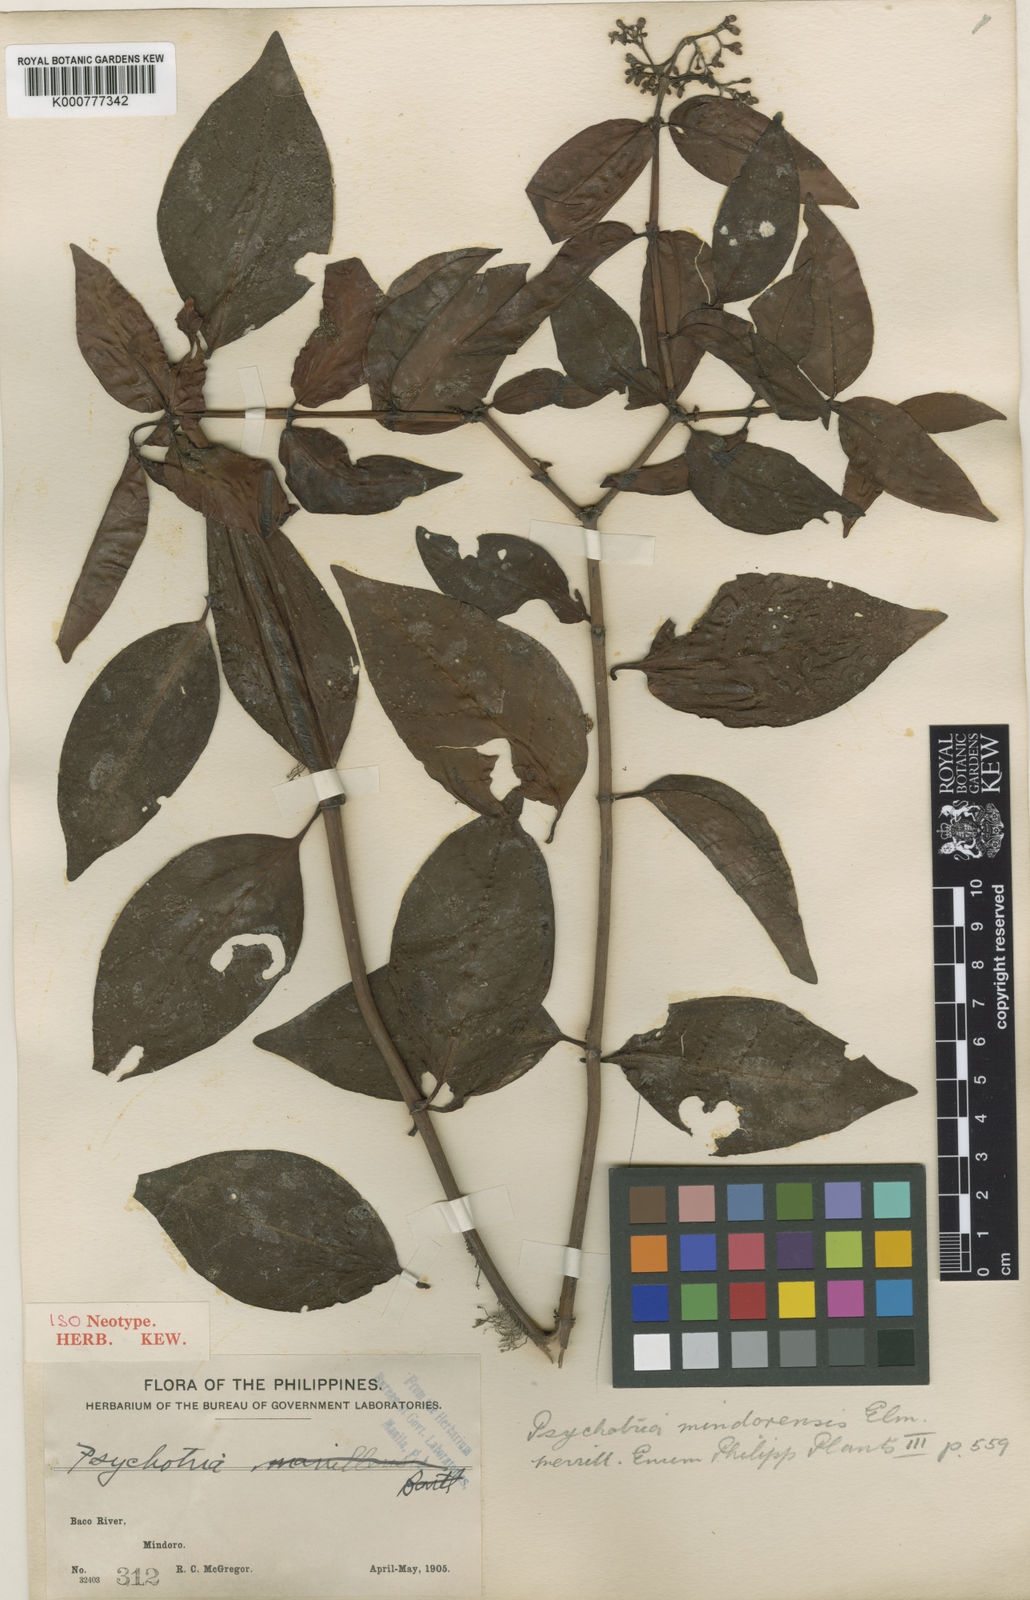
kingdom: Plantae
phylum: Tracheophyta
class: Magnoliopsida
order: Gentianales
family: Rubiaceae
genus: Psychotria
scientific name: Psychotria mindoroensis
